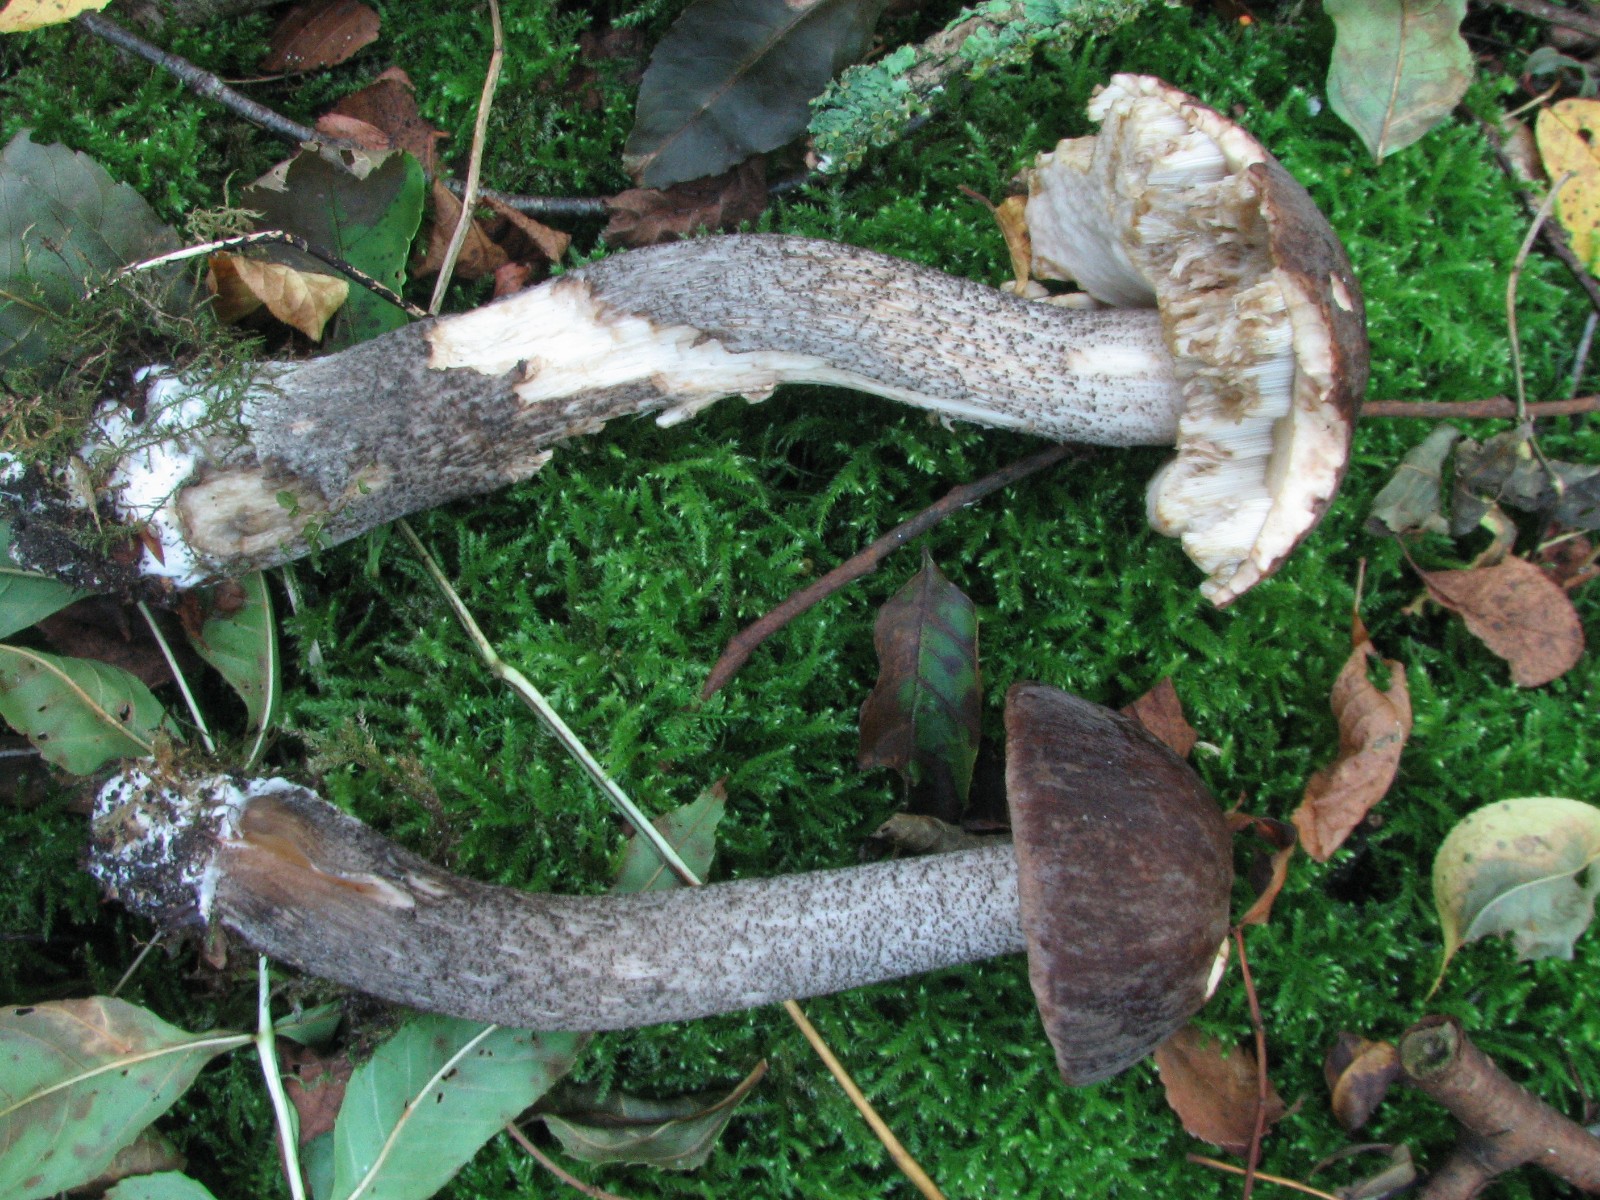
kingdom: Fungi
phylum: Basidiomycota
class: Agaricomycetes
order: Boletales
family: Boletaceae
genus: Leccinum
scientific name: Leccinum melaneum
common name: mørk skælrørhat
